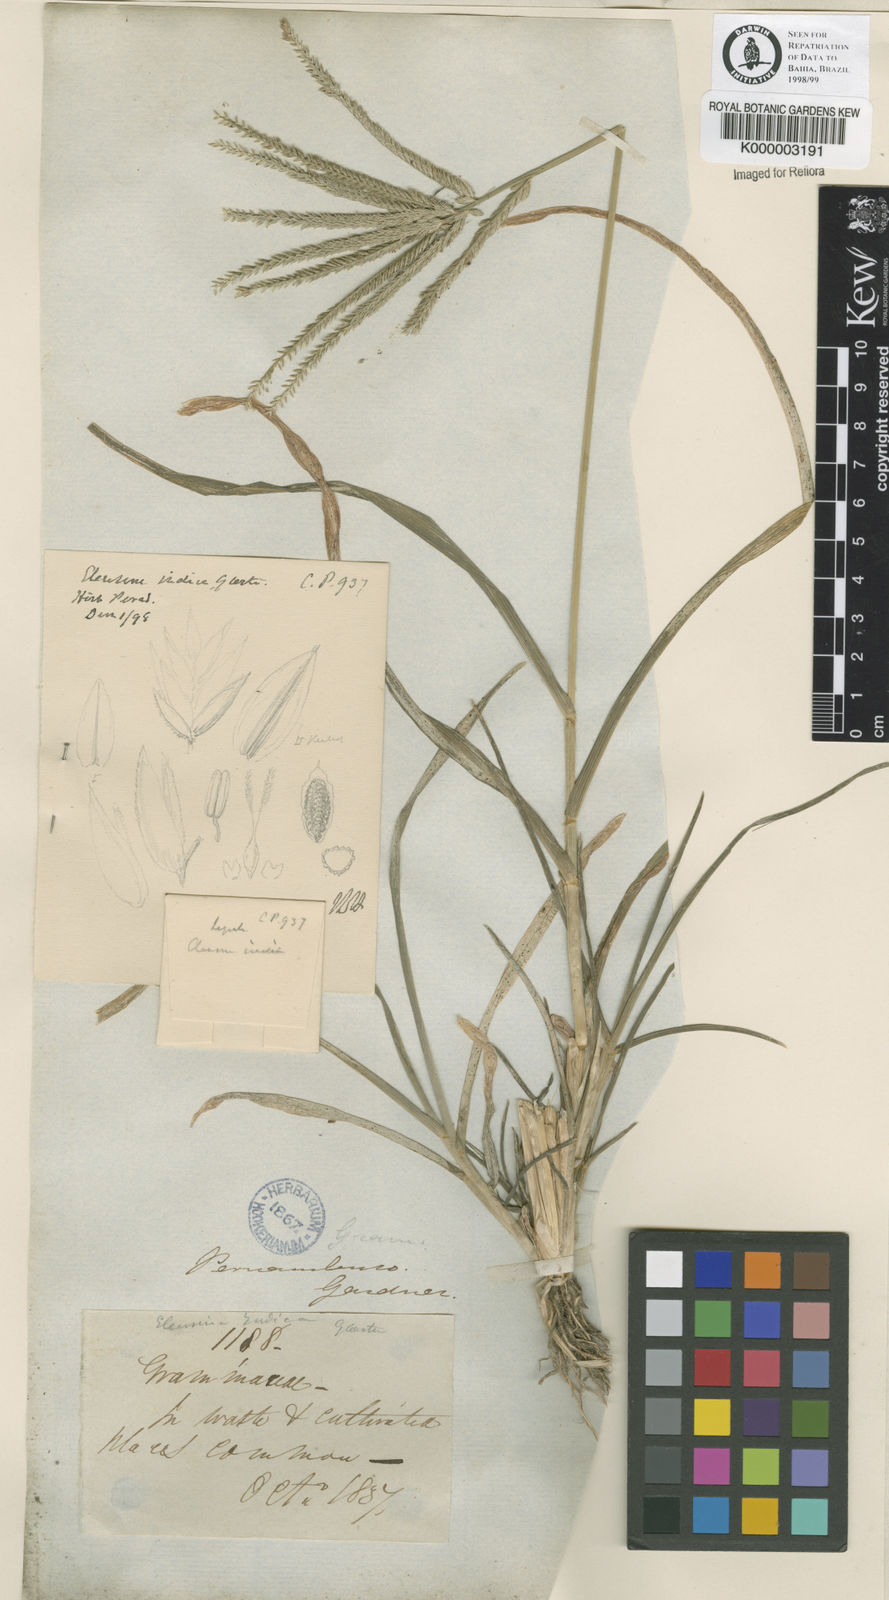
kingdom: Plantae
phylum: Tracheophyta
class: Liliopsida
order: Poales
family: Poaceae
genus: Eleusine
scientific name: Eleusine indica
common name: Yard-grass
